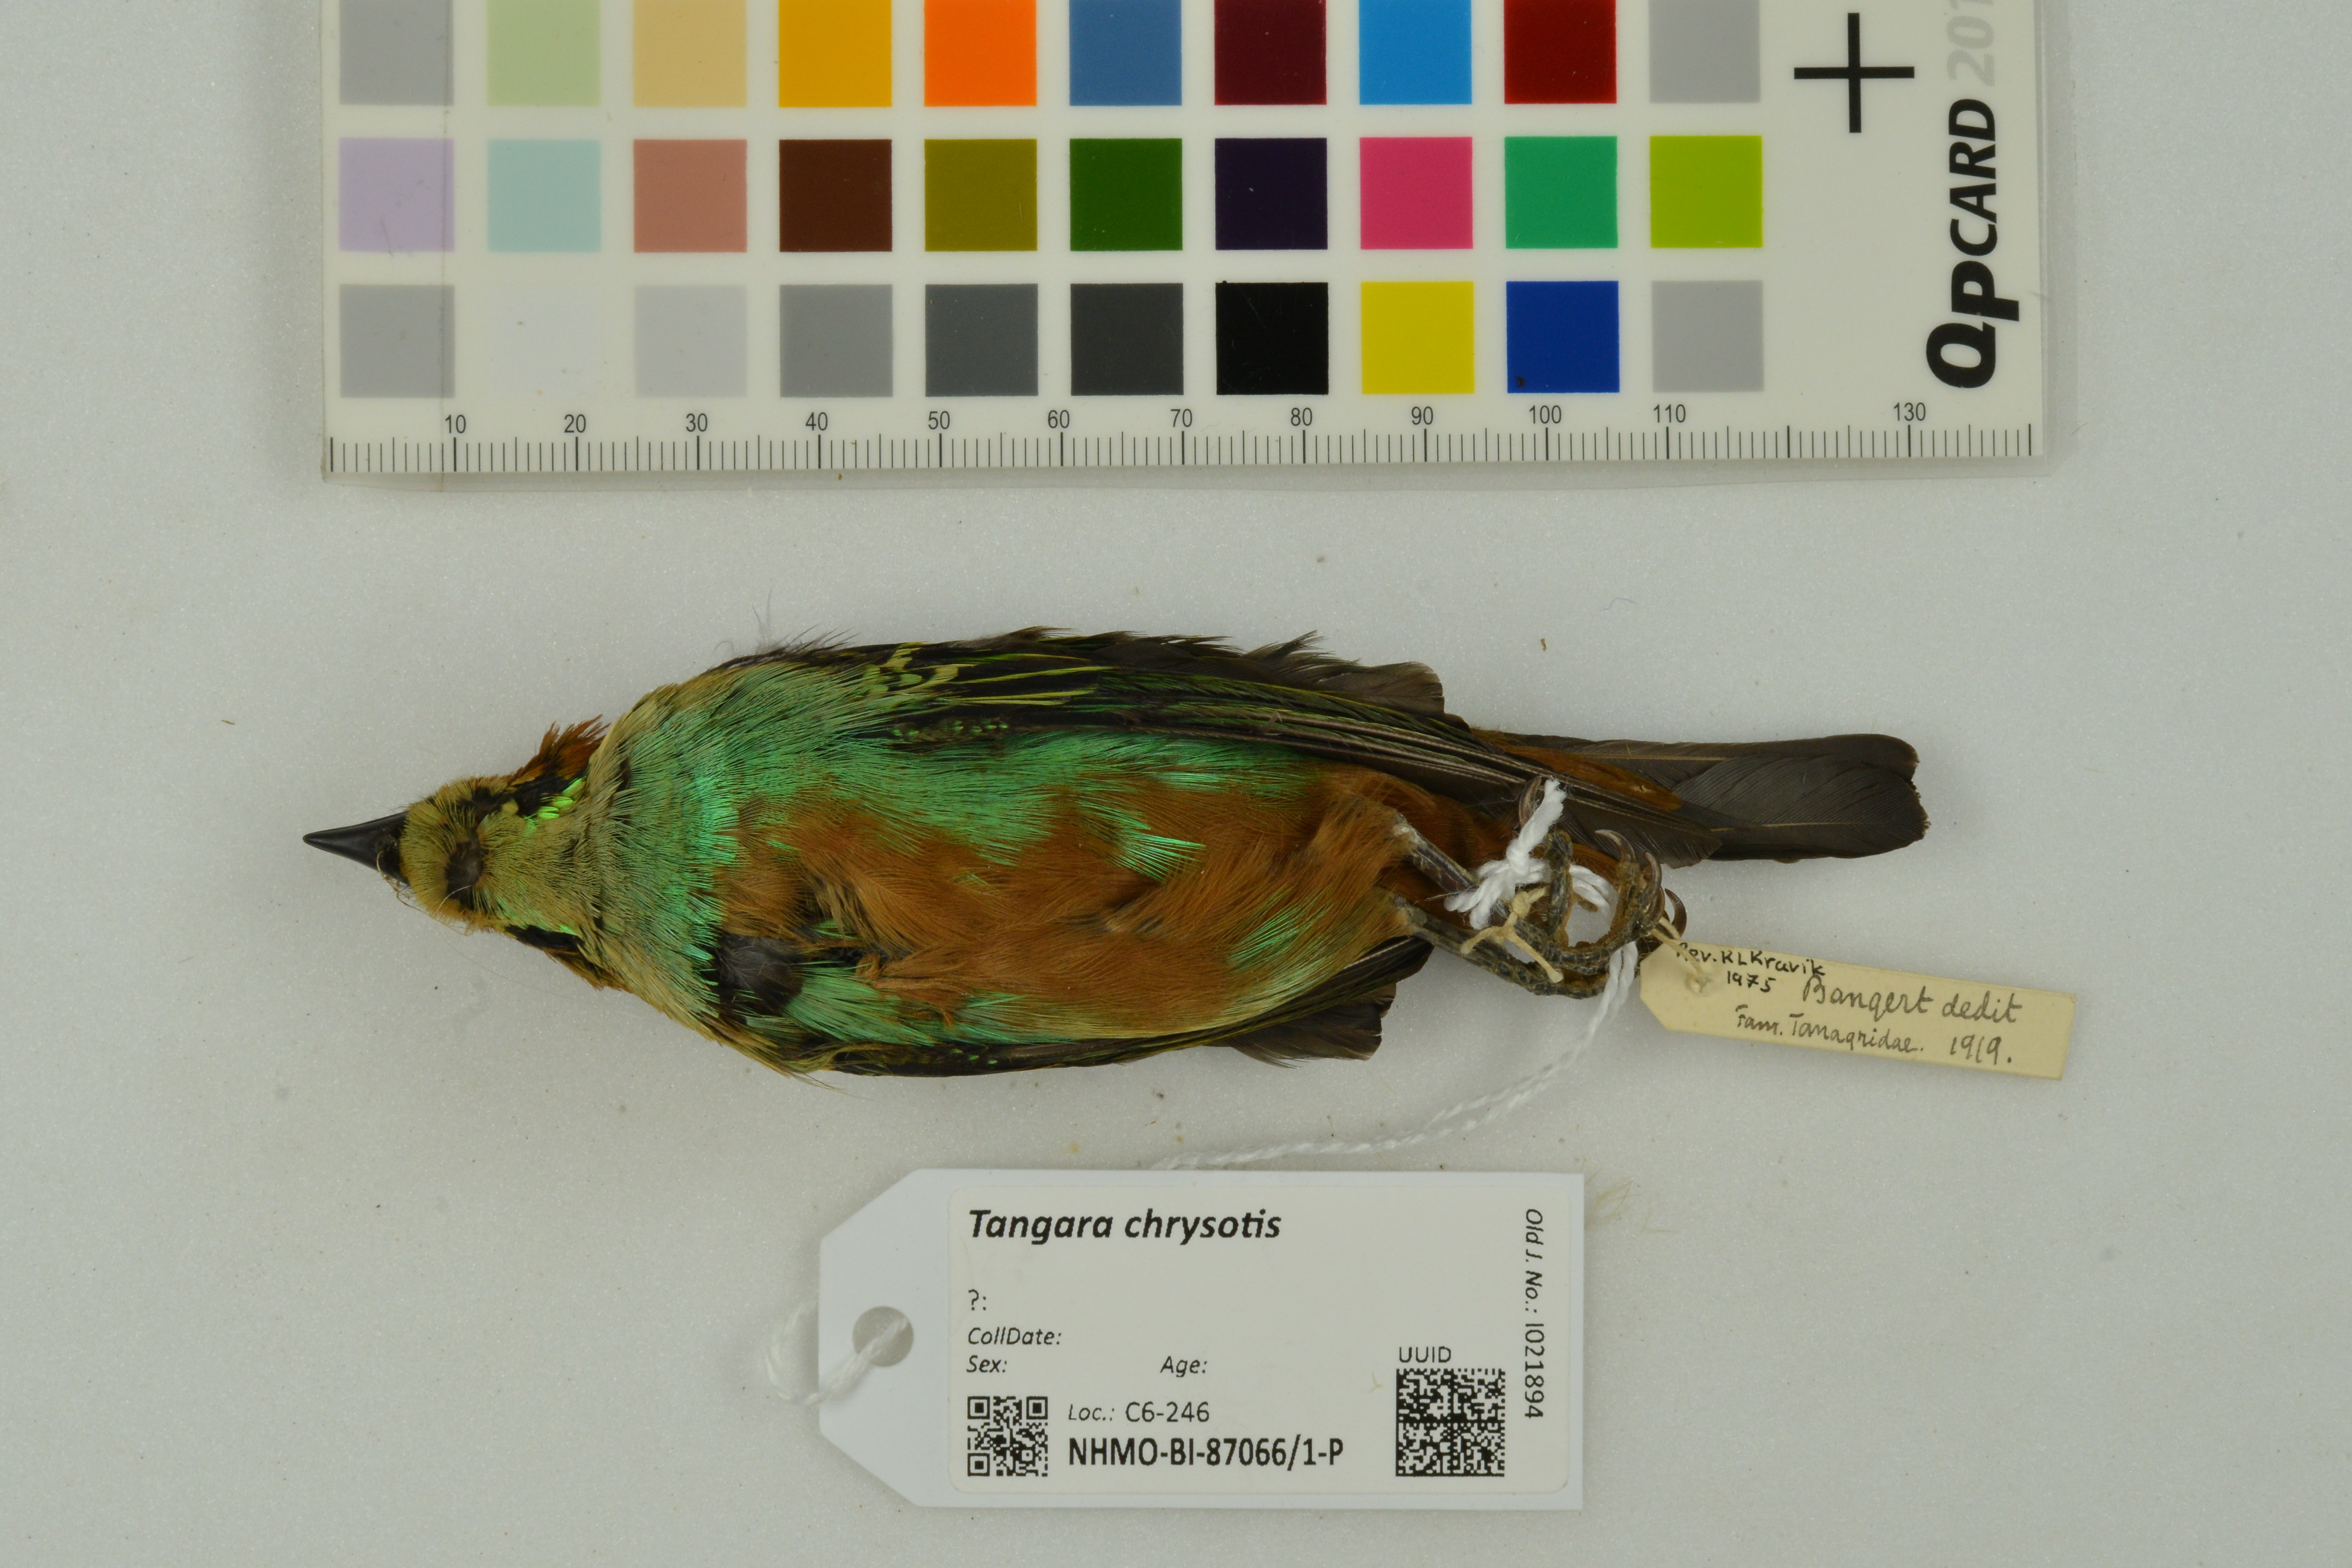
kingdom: Animalia
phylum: Chordata
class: Aves
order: Passeriformes
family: Thraupidae
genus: Tangara
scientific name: Tangara chrysotis
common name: Golden-eared tanager
